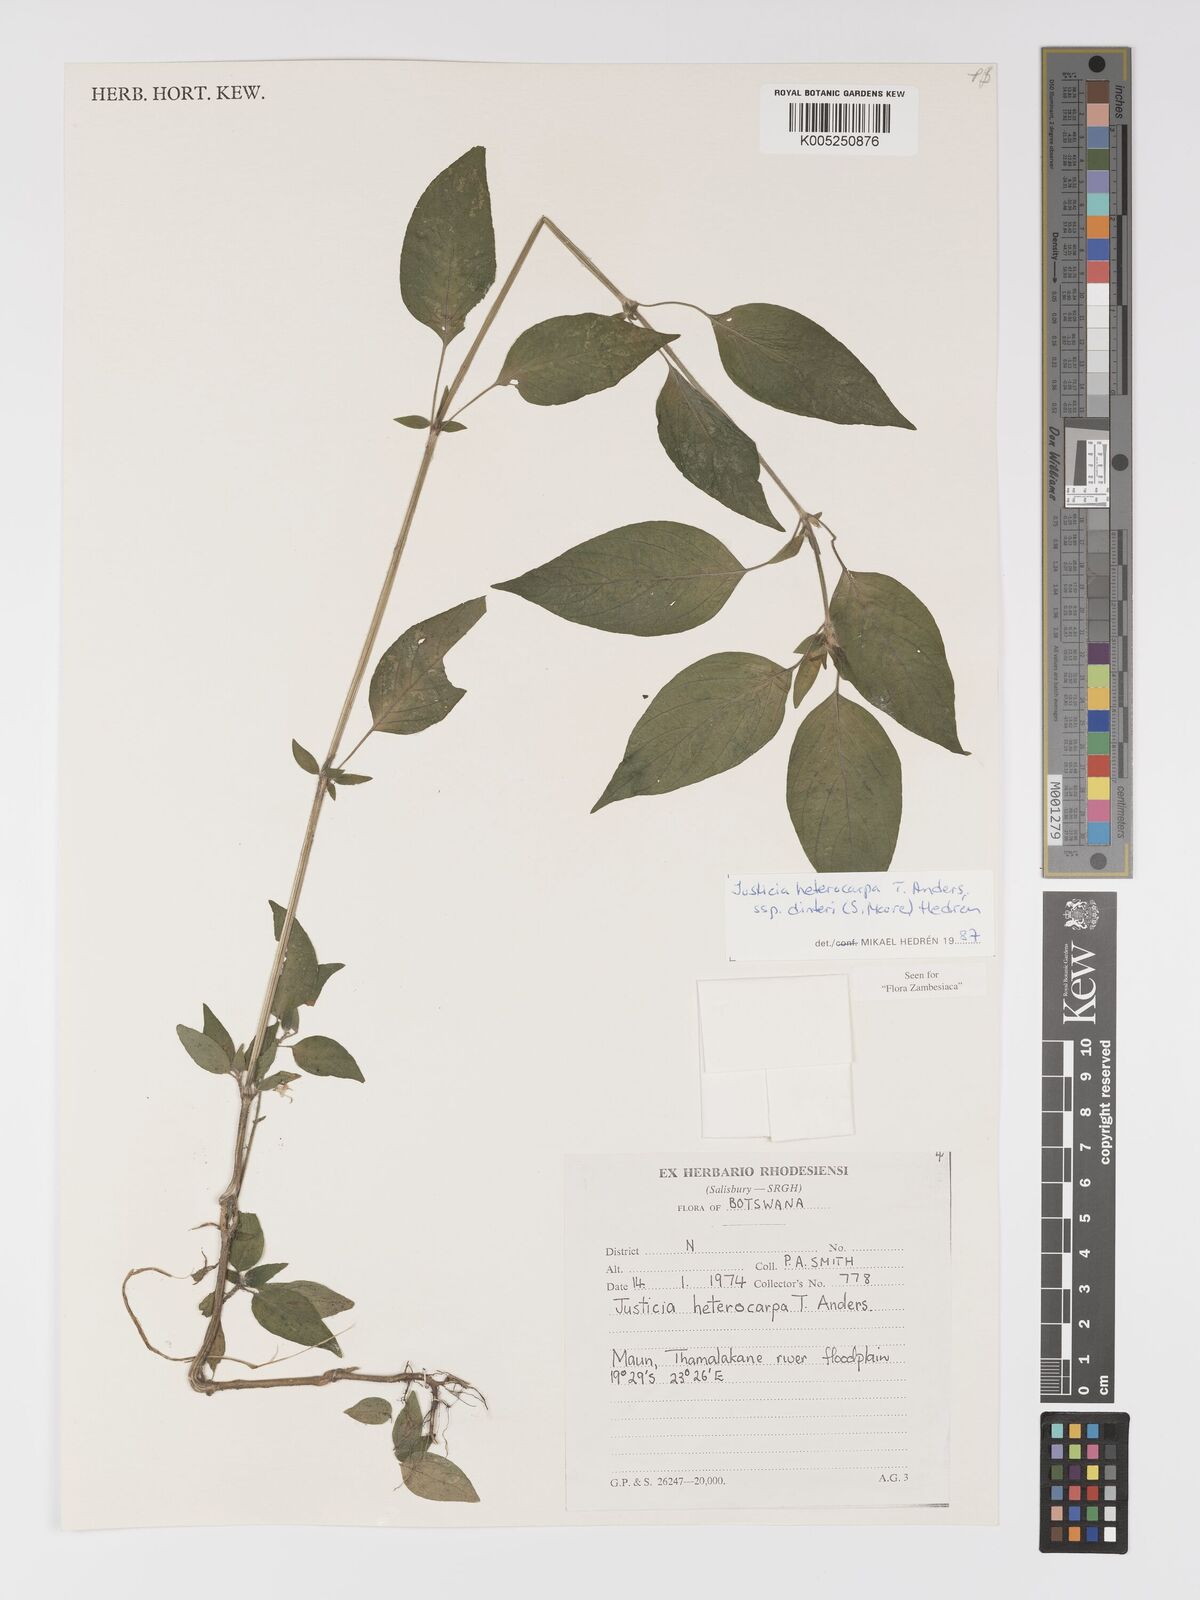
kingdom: Plantae
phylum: Tracheophyta
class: Magnoliopsida
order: Lamiales
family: Acanthaceae
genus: Justicia
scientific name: Justicia heterocarpa
